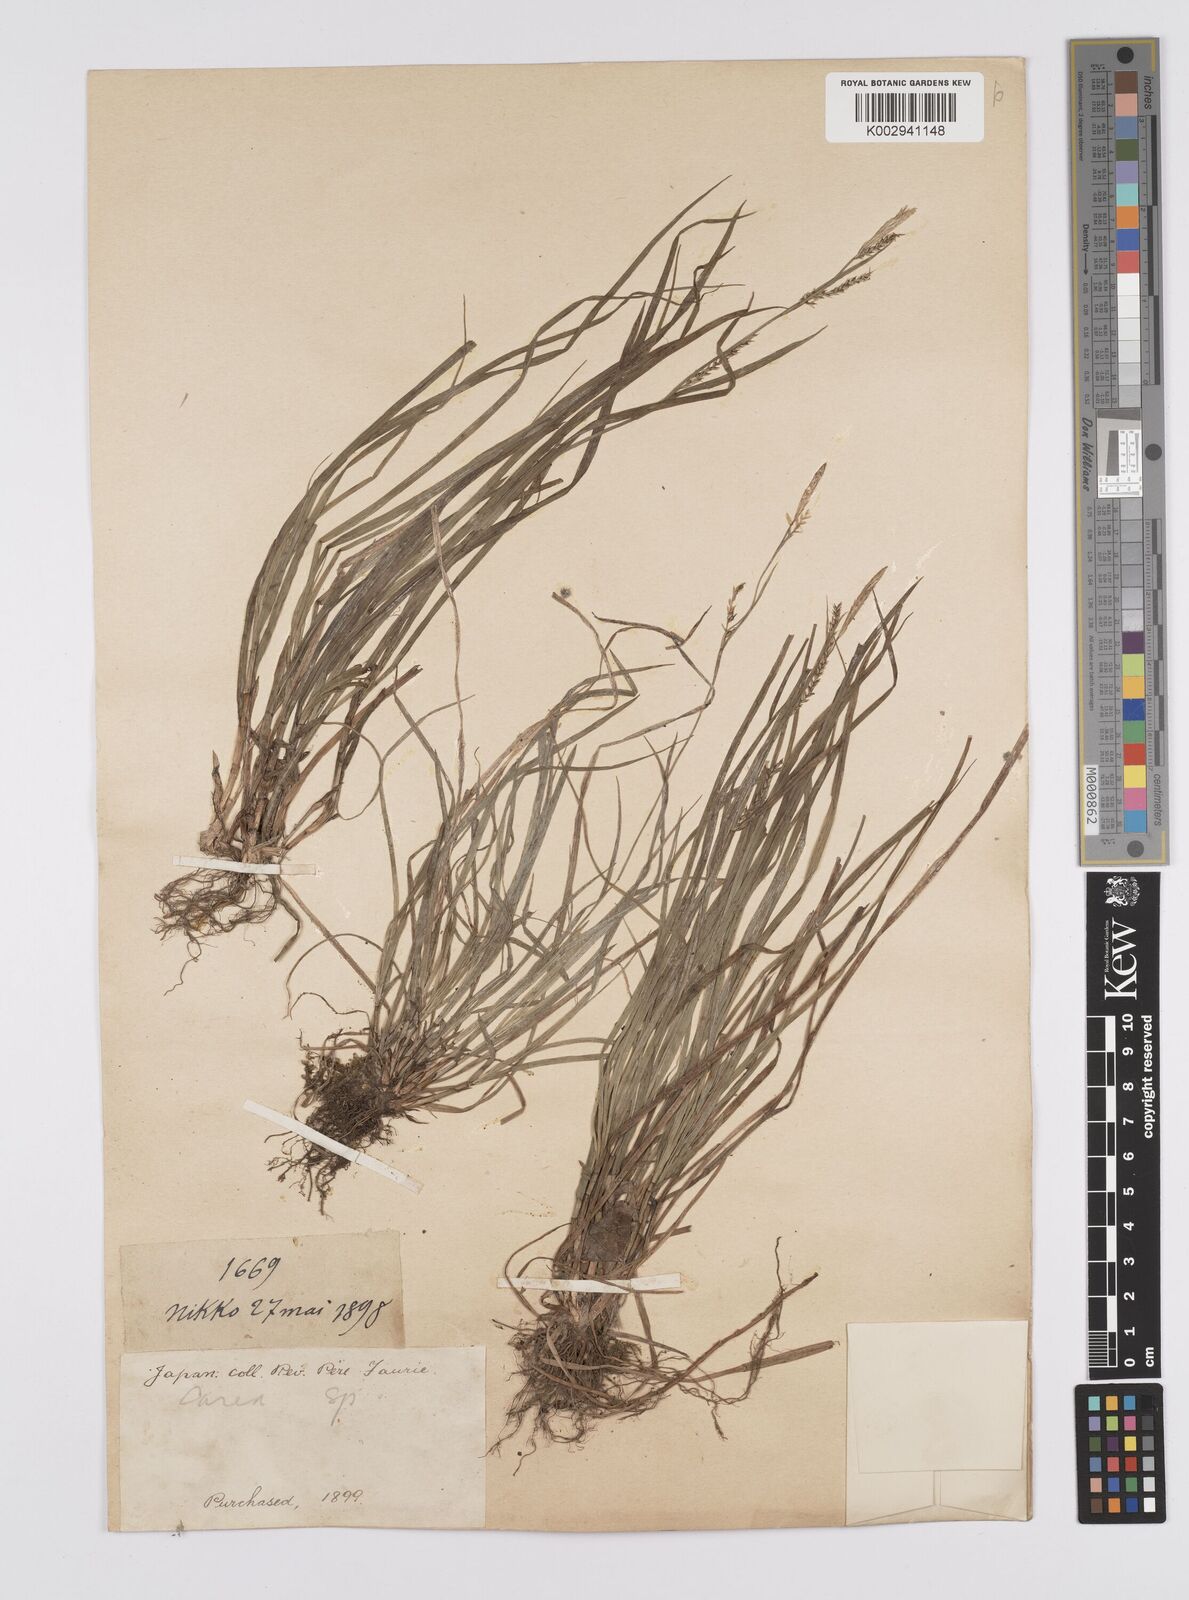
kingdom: Plantae
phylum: Tracheophyta
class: Liliopsida
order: Poales
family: Cyperaceae
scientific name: Cyperaceae
